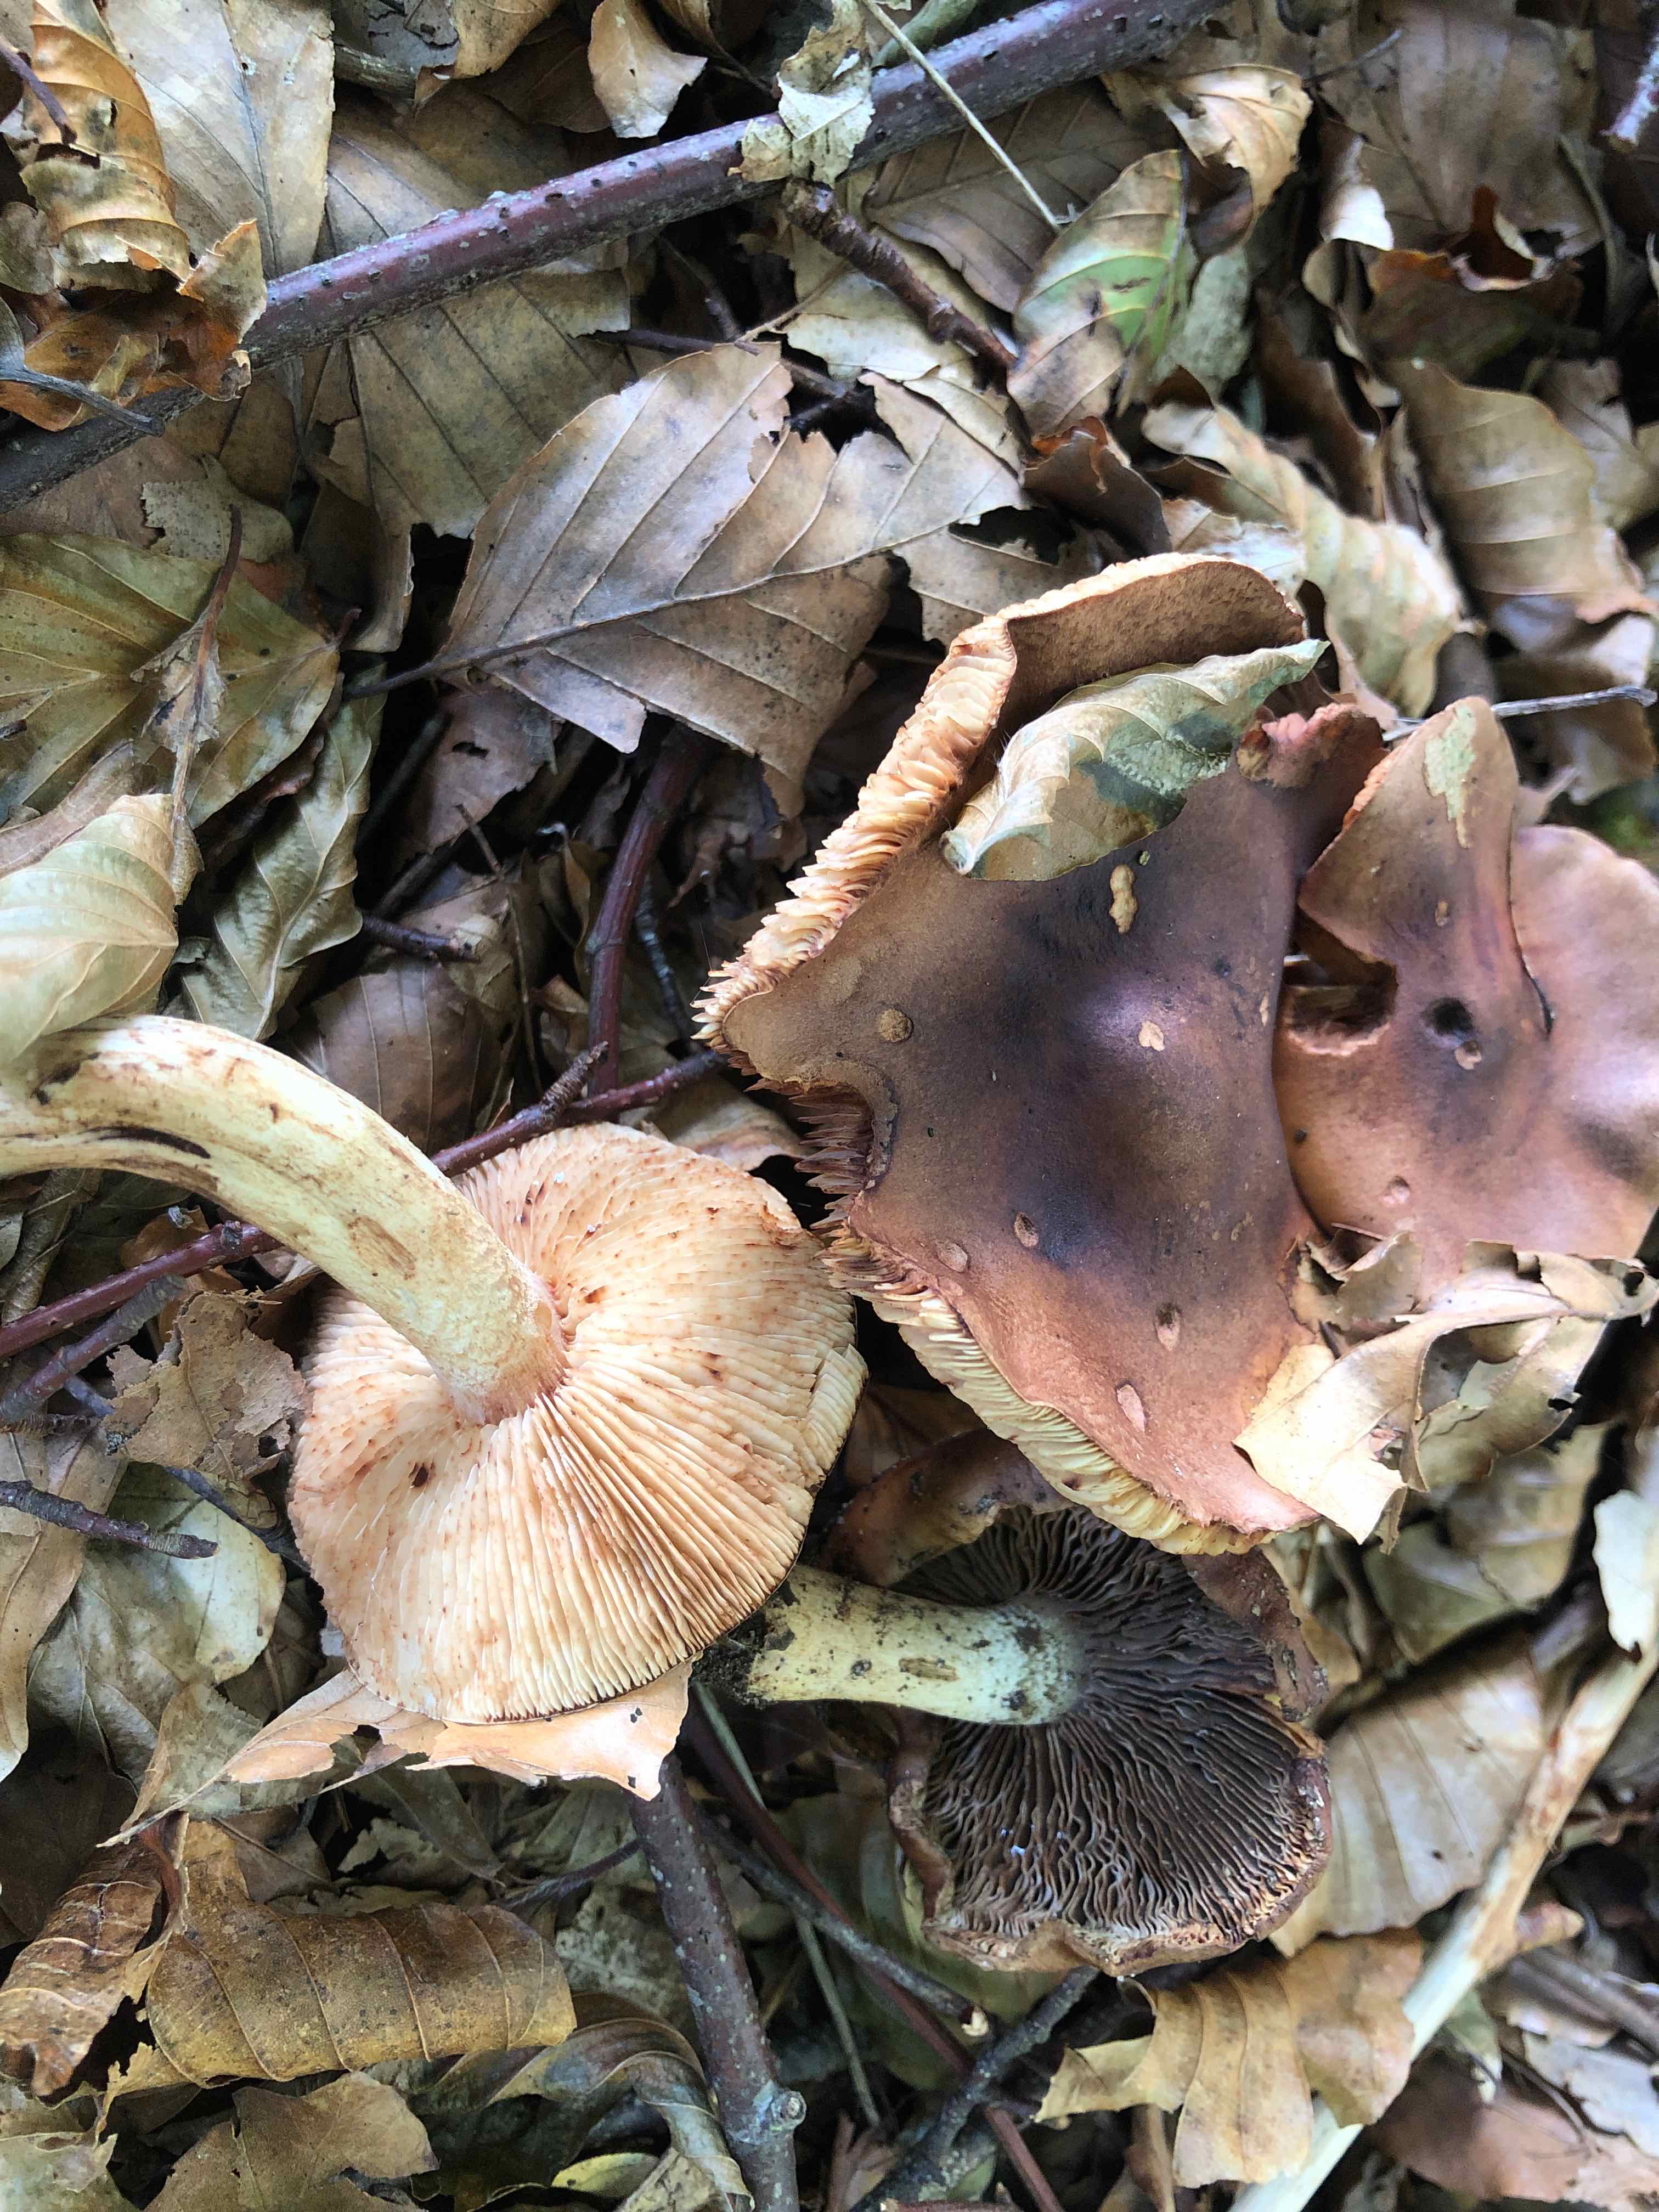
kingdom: Fungi
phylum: Basidiomycota
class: Agaricomycetes
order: Agaricales
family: Tricholomataceae
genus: Tricholoma
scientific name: Tricholoma ustale
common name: sveden ridderhat
